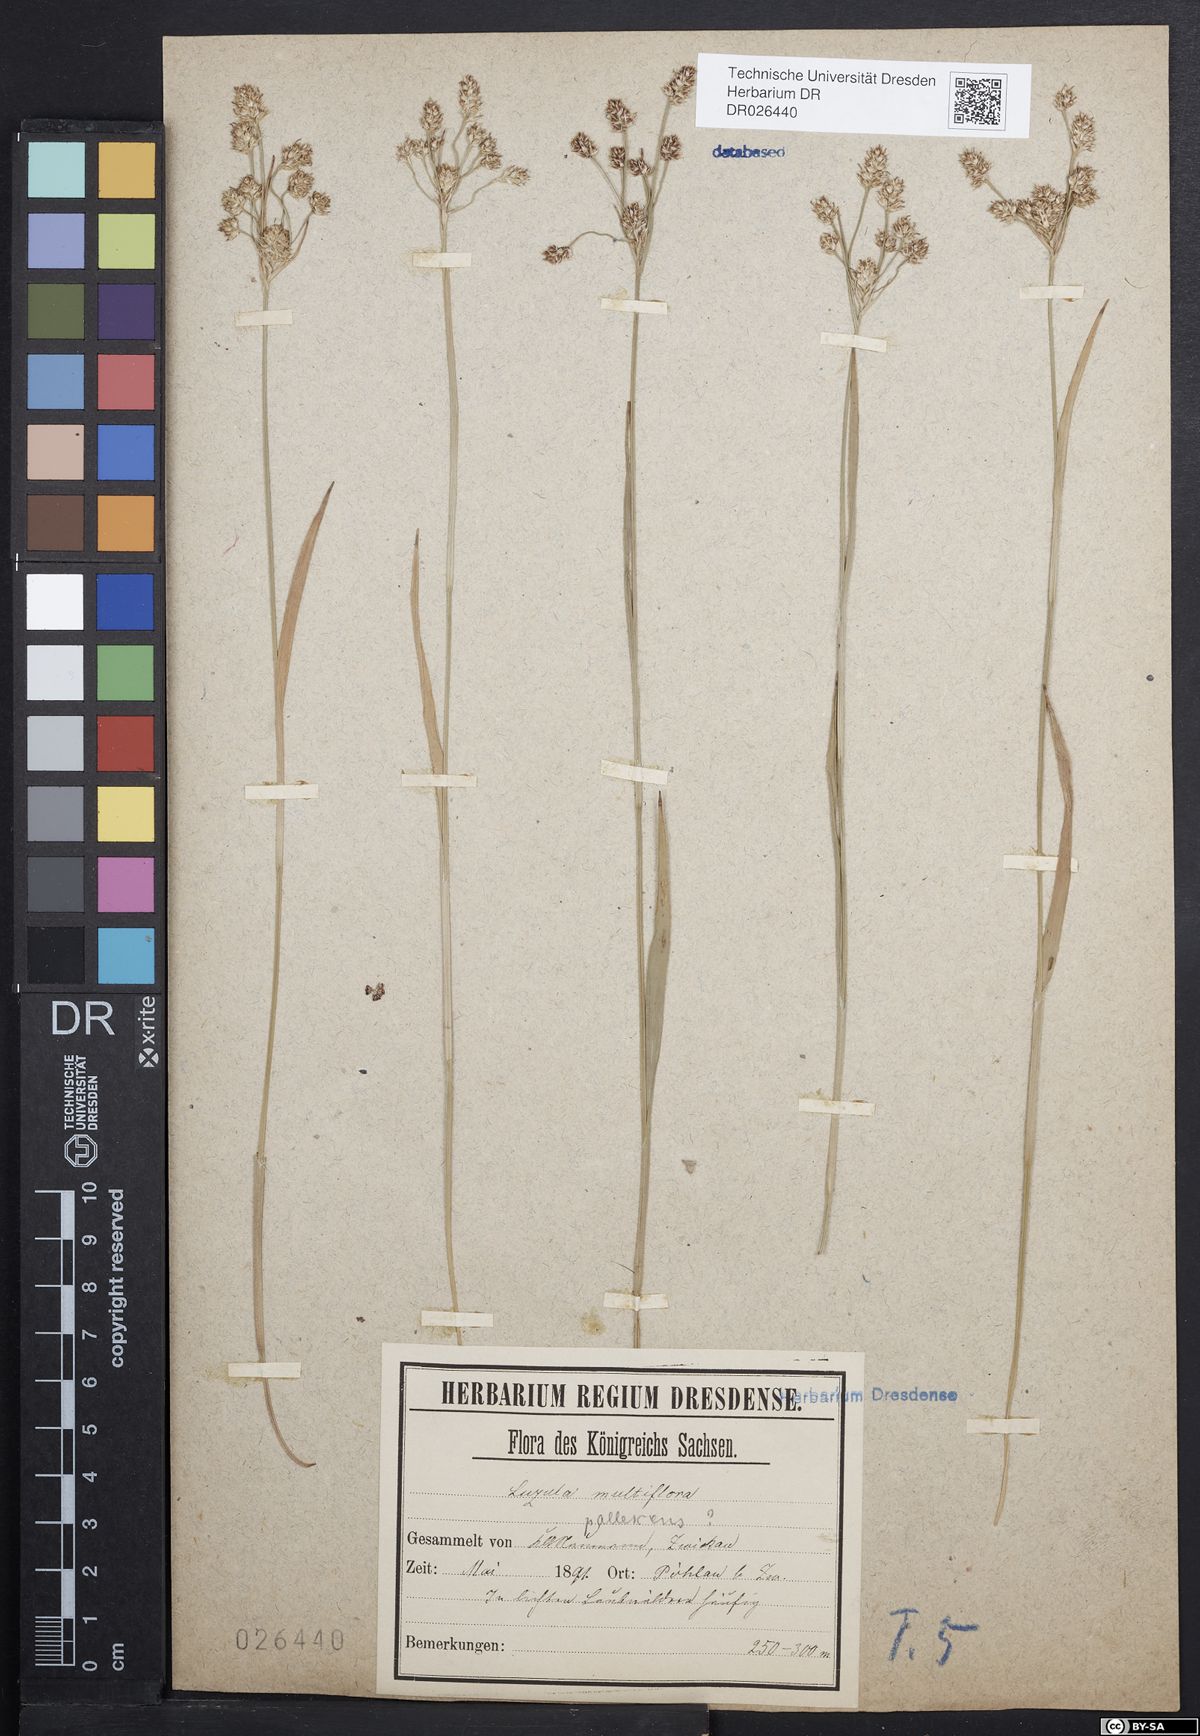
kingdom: Plantae
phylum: Tracheophyta
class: Liliopsida
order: Poales
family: Juncaceae
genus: Luzula
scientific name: Luzula multiflora
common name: Heath wood-rush
